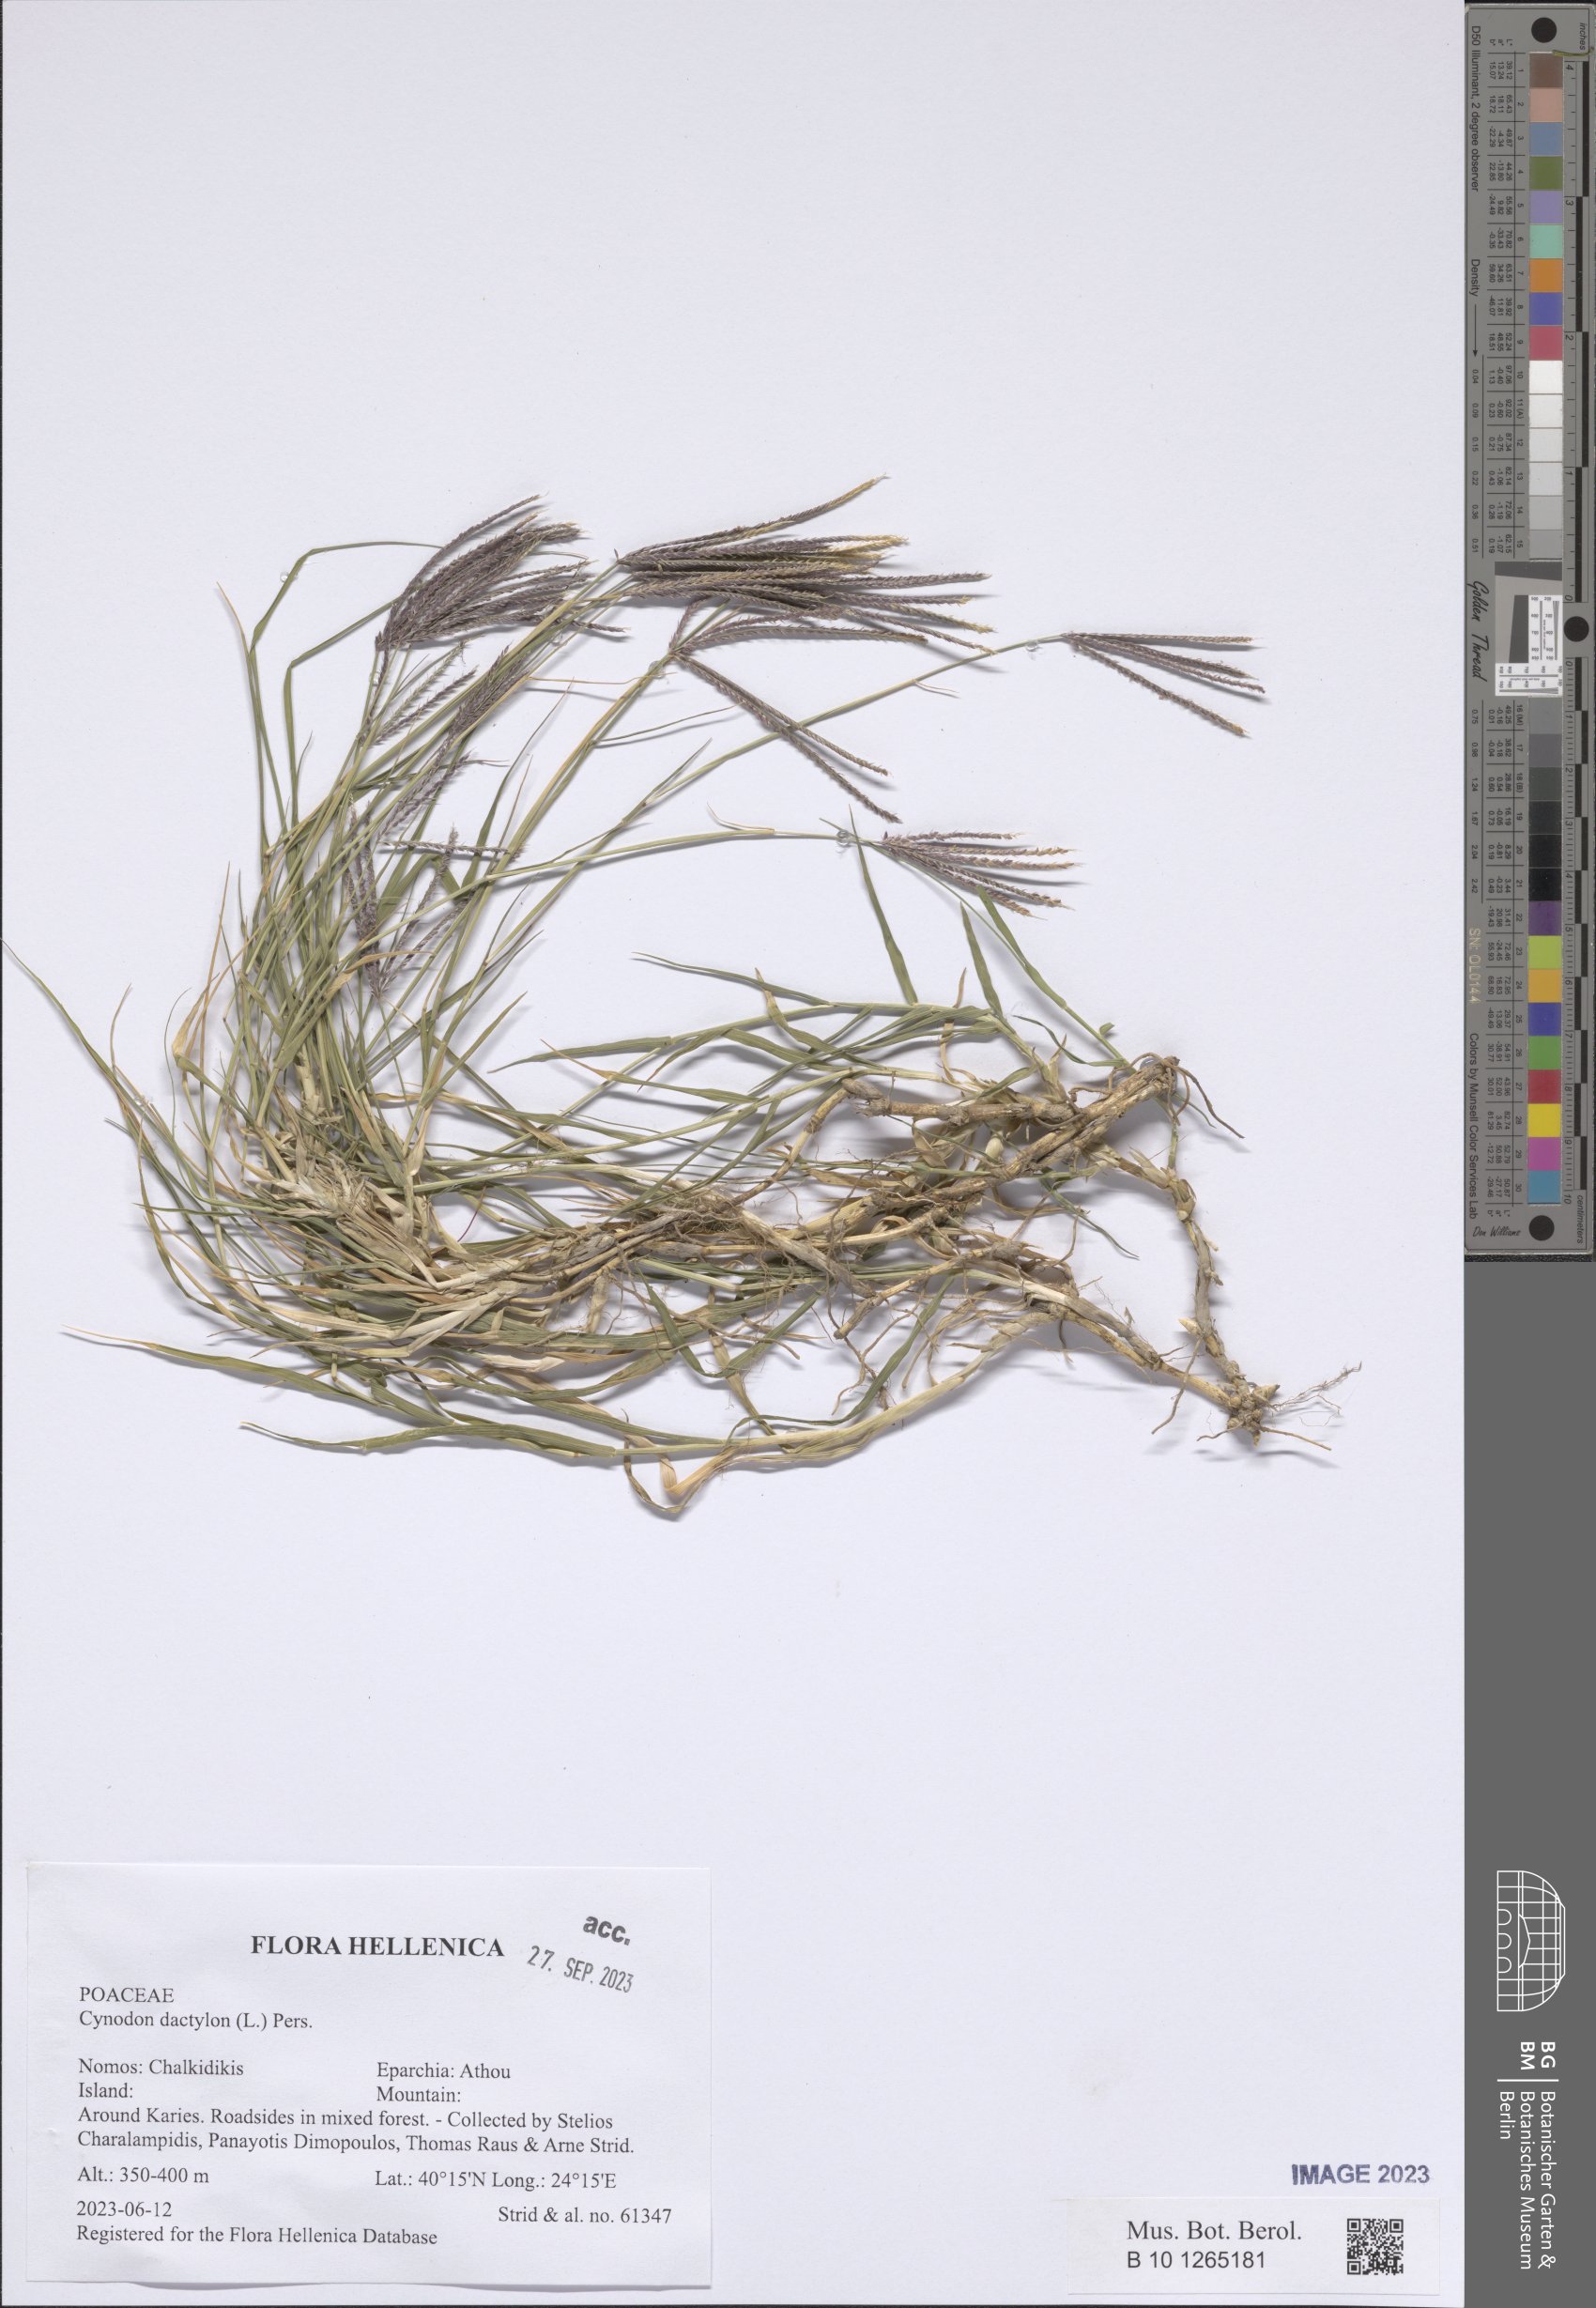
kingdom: Plantae
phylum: Tracheophyta
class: Liliopsida
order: Poales
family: Poaceae
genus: Cynodon
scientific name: Cynodon dactylon
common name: Bermuda grass
